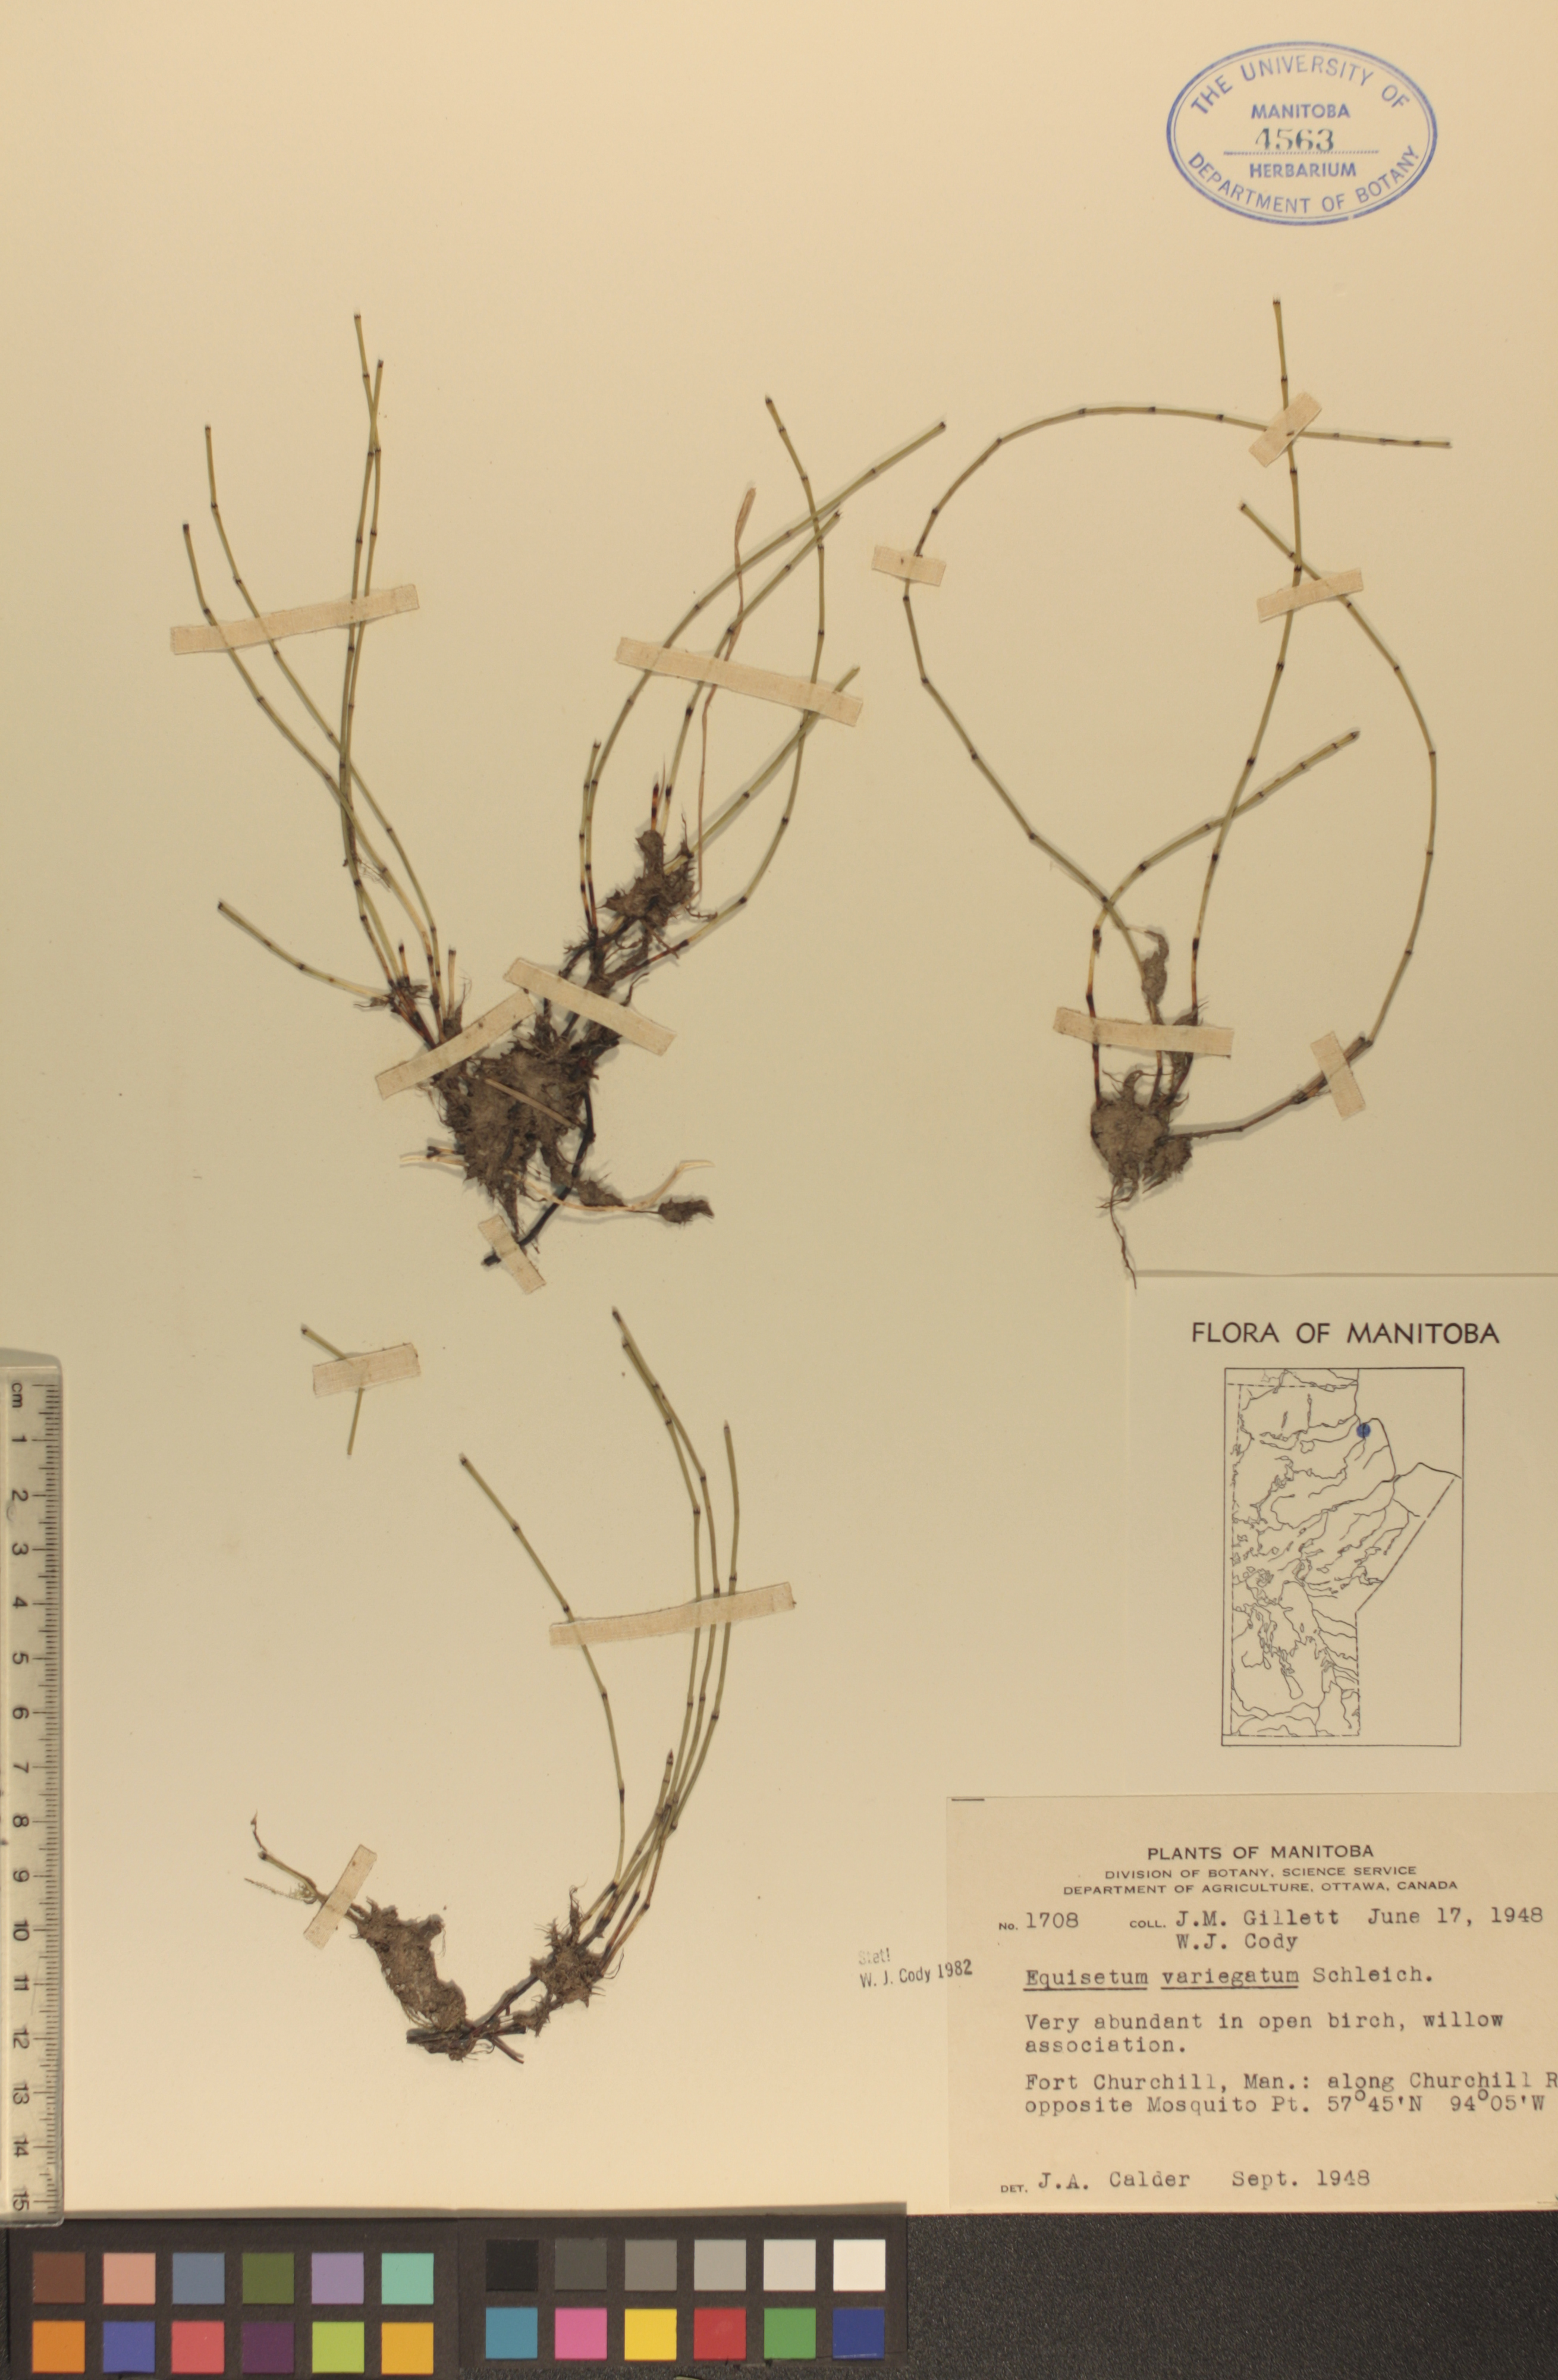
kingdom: Plantae
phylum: Tracheophyta
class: Polypodiopsida
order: Equisetales
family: Equisetaceae
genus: Equisetum
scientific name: Equisetum variegatum
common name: Variegated horsetail
